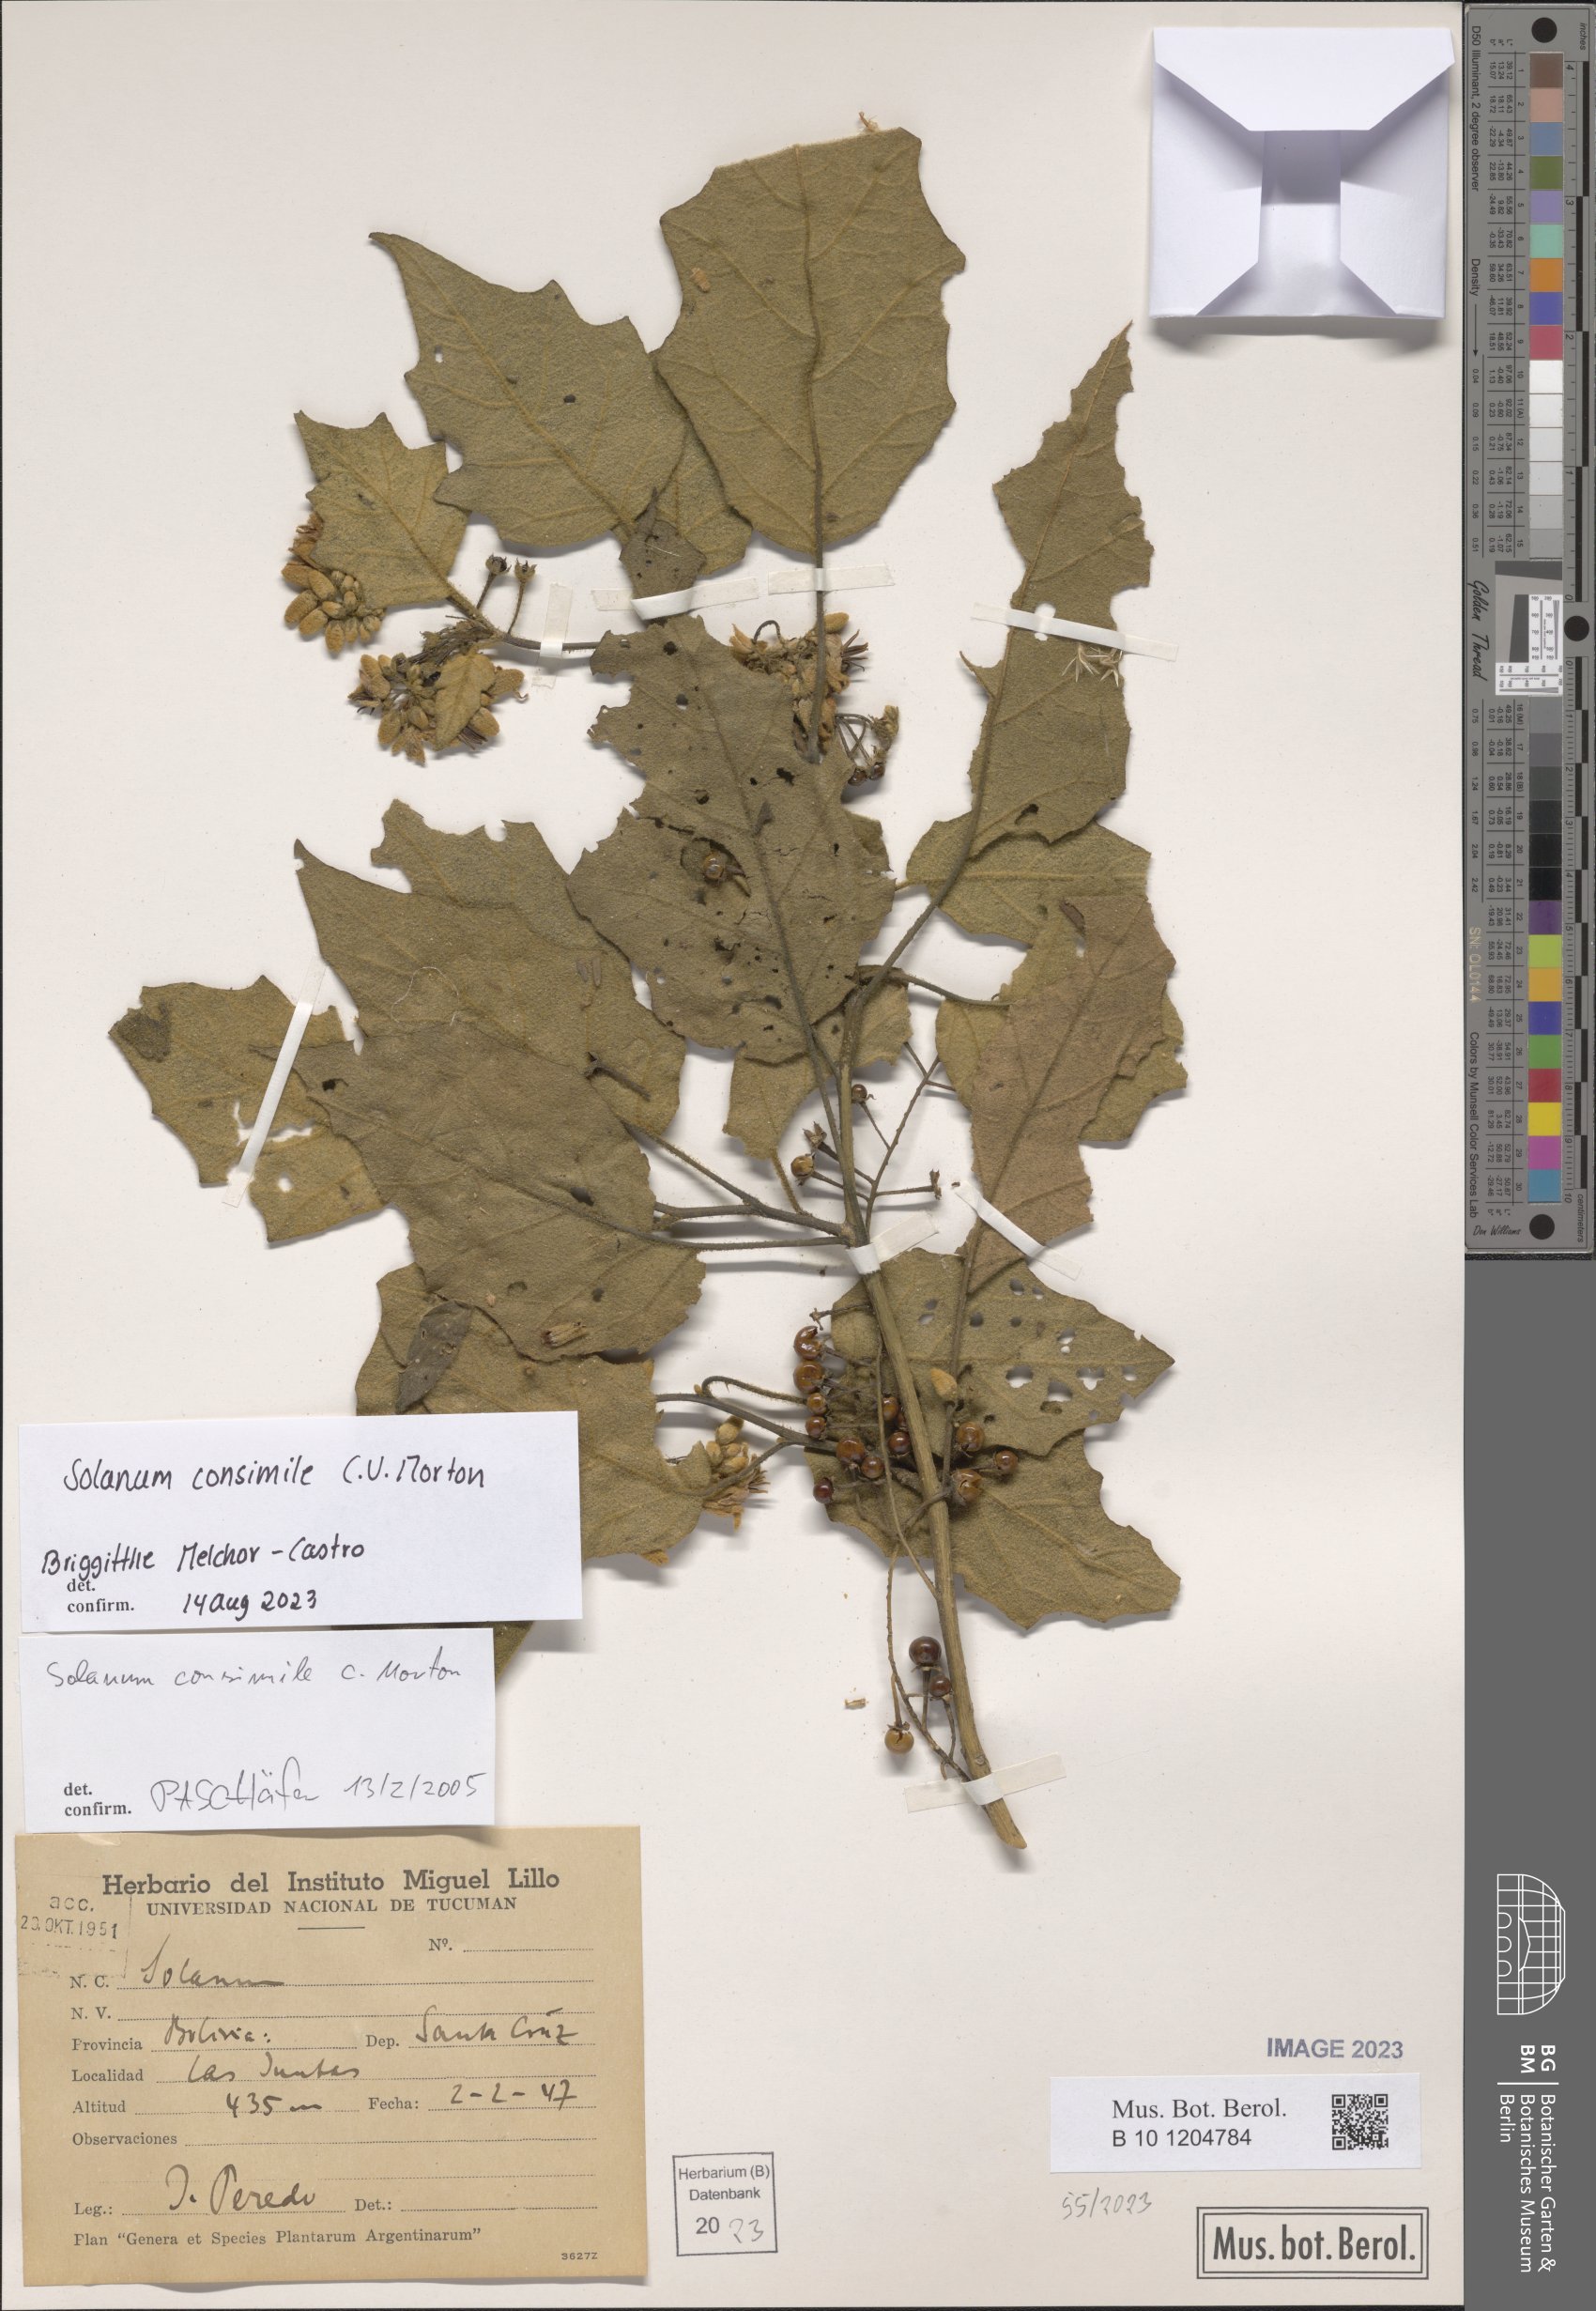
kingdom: Plantae
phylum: Tracheophyta
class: Magnoliopsida
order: Solanales
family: Solanaceae
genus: Solanum
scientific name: Solanum consimile
